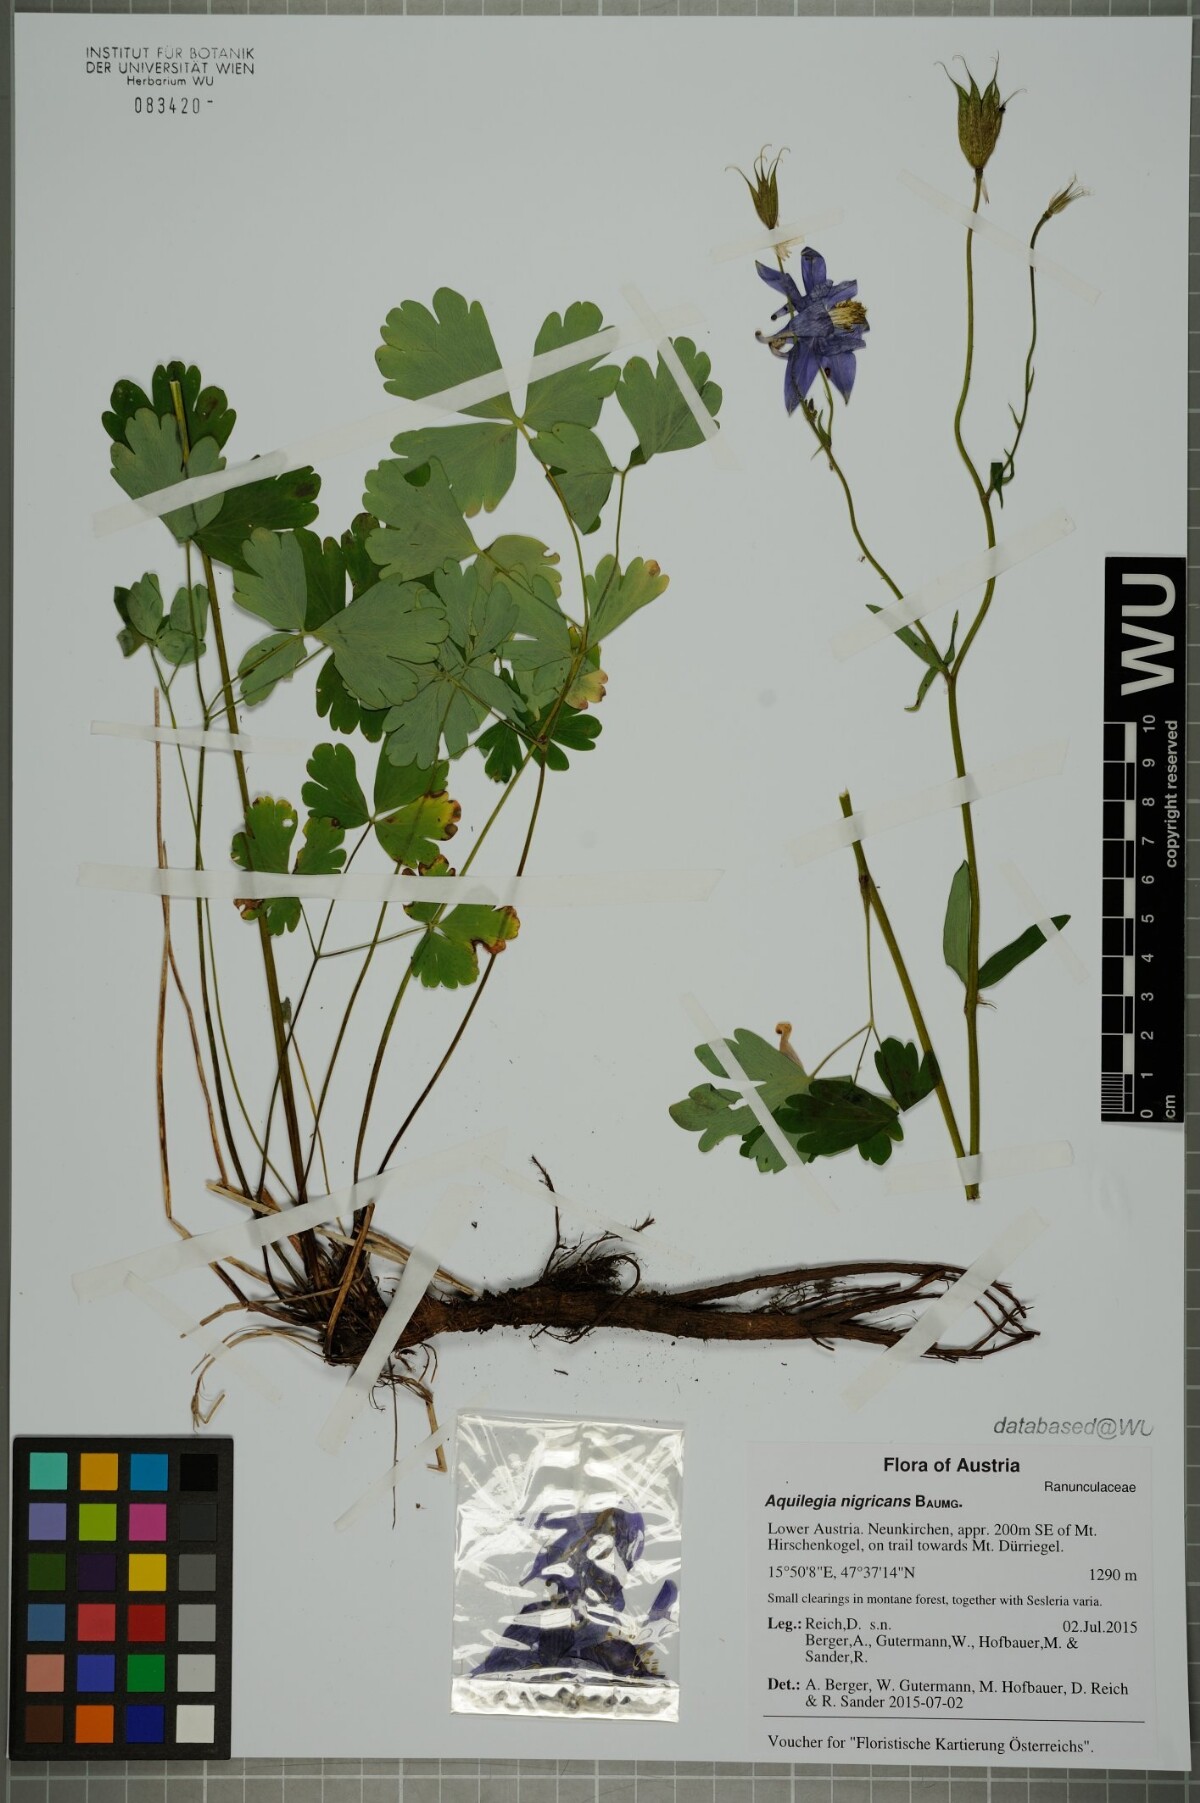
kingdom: Plantae
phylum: Tracheophyta
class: Magnoliopsida
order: Ranunculales
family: Ranunculaceae
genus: Aquilegia
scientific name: Aquilegia nigricans
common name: Bulgarian columbine
